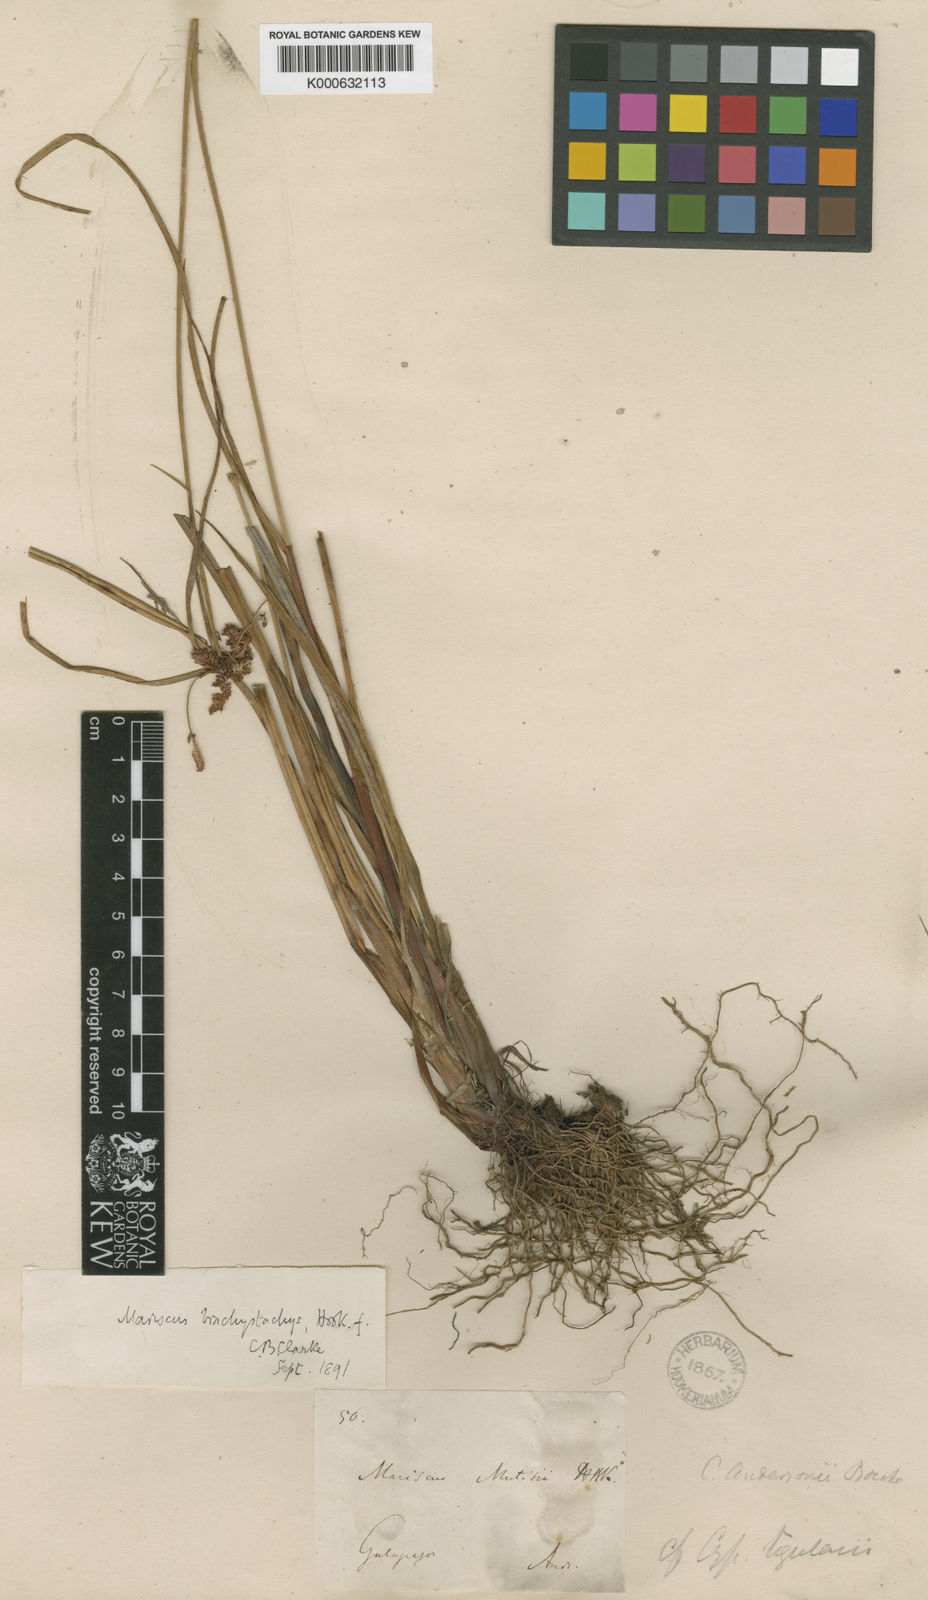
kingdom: Plantae
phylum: Tracheophyta
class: Liliopsida
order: Poales
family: Cyperaceae
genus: Cyperus
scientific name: Cyperus anderssonii
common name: Andersson's sedge
